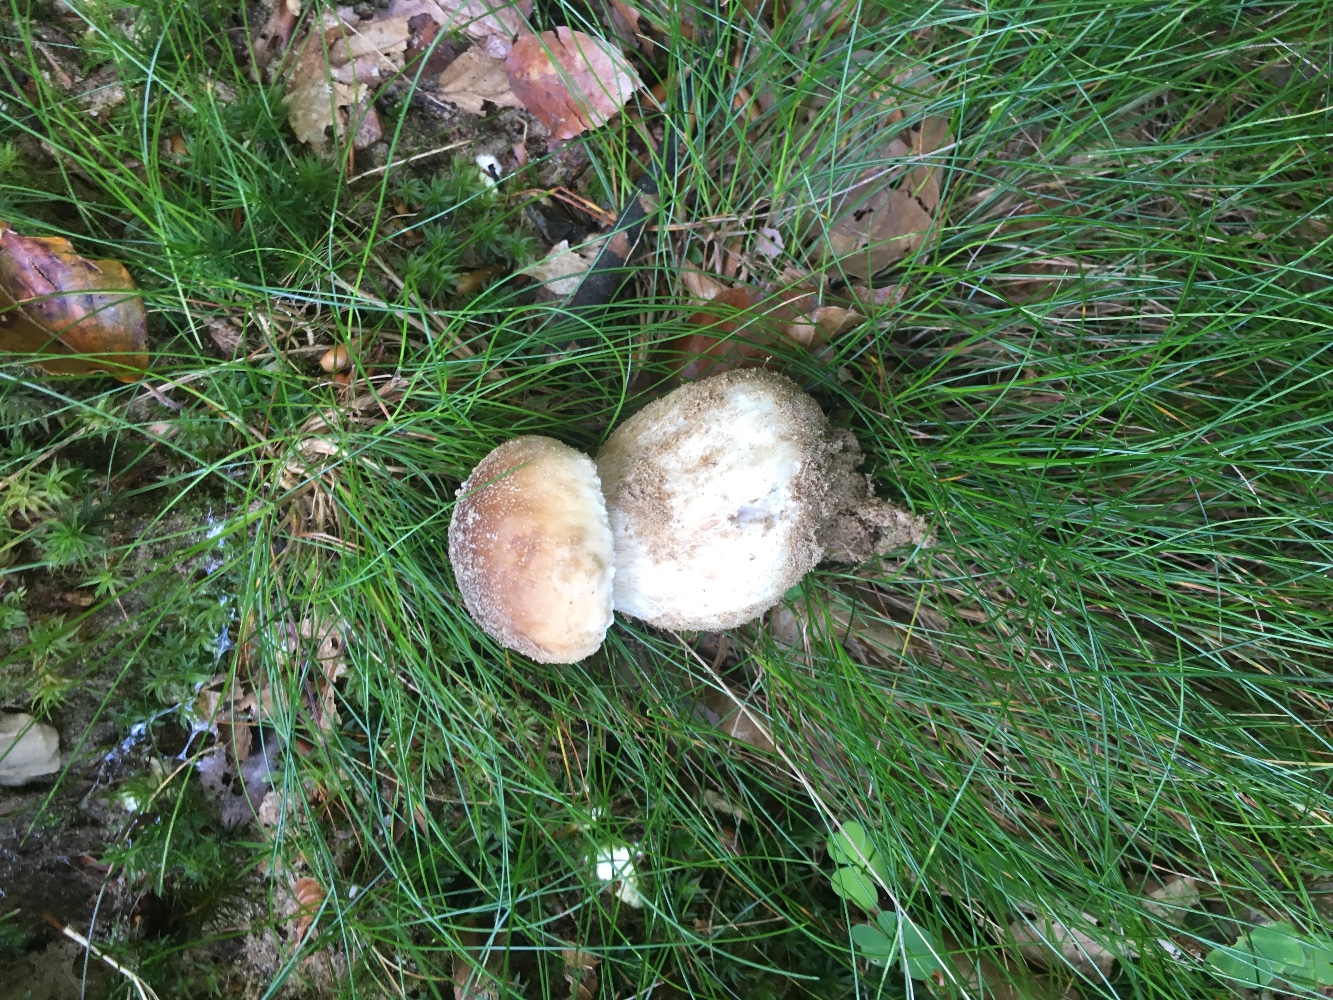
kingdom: Fungi
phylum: Basidiomycota
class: Agaricomycetes
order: Boletales
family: Boletaceae
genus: Boletus
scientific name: Boletus edulis
